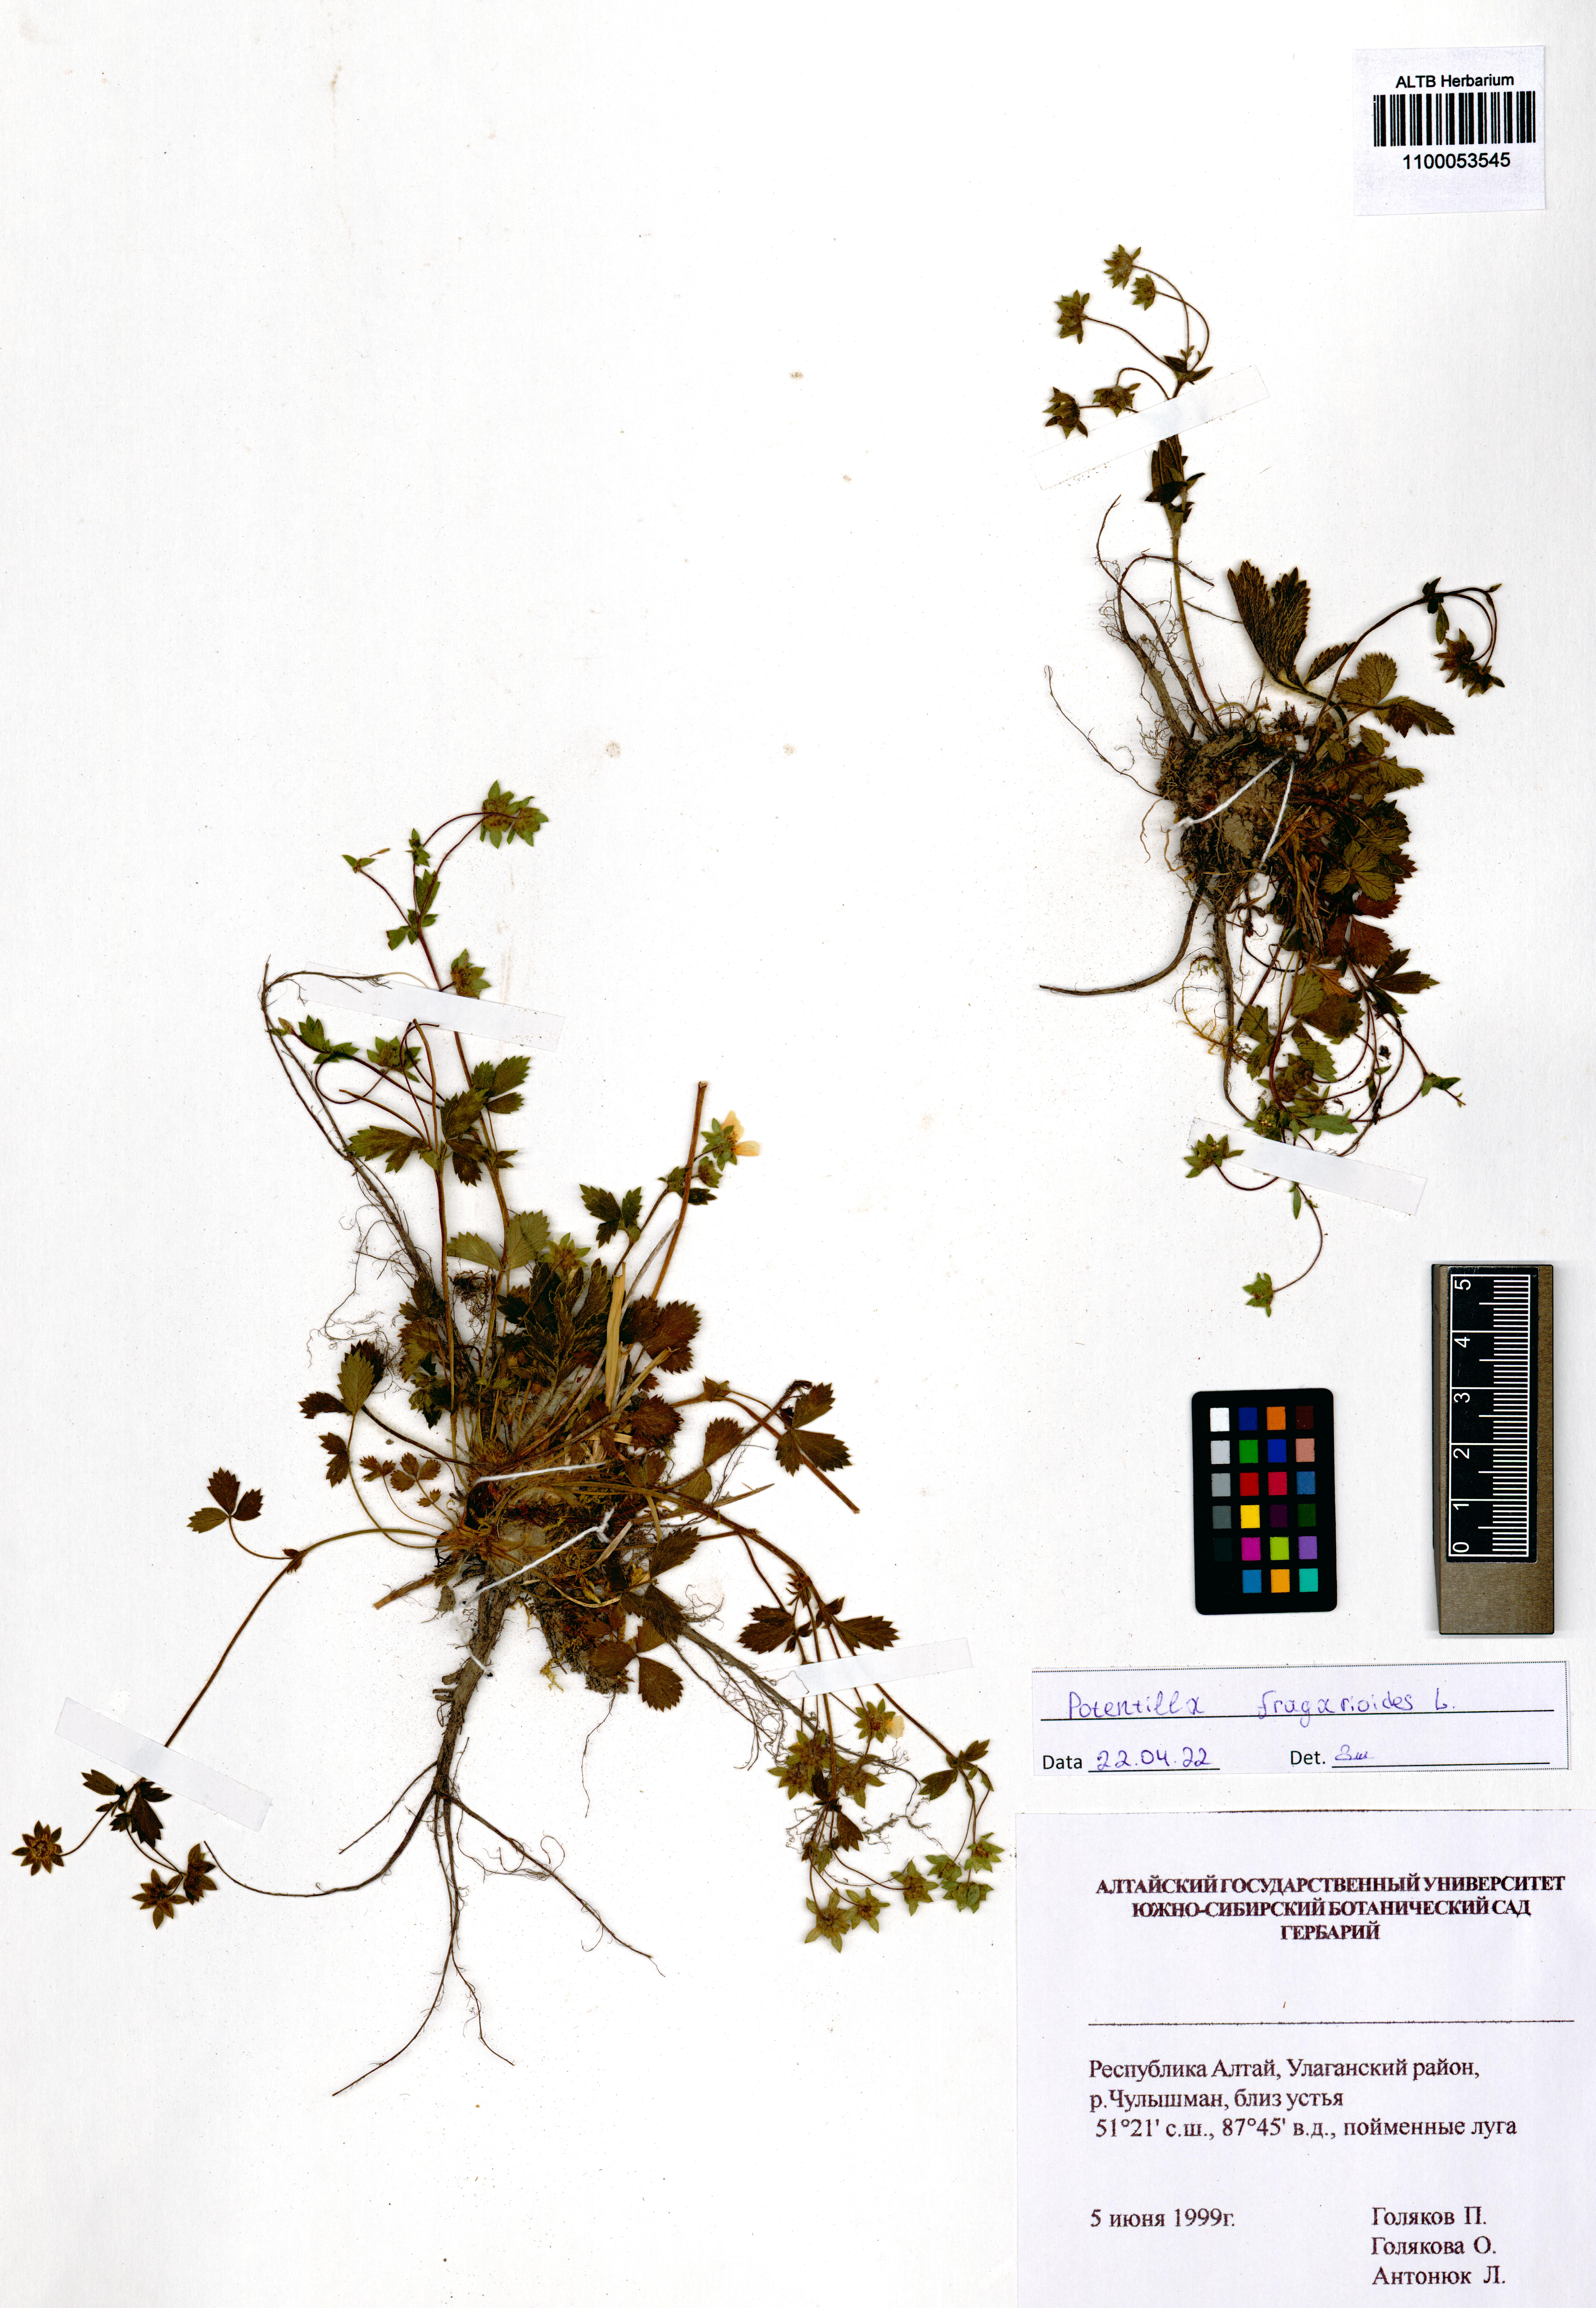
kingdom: Plantae
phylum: Tracheophyta
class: Magnoliopsida
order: Rosales
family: Rosaceae
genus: Potentilla
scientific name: Potentilla fragarioides
